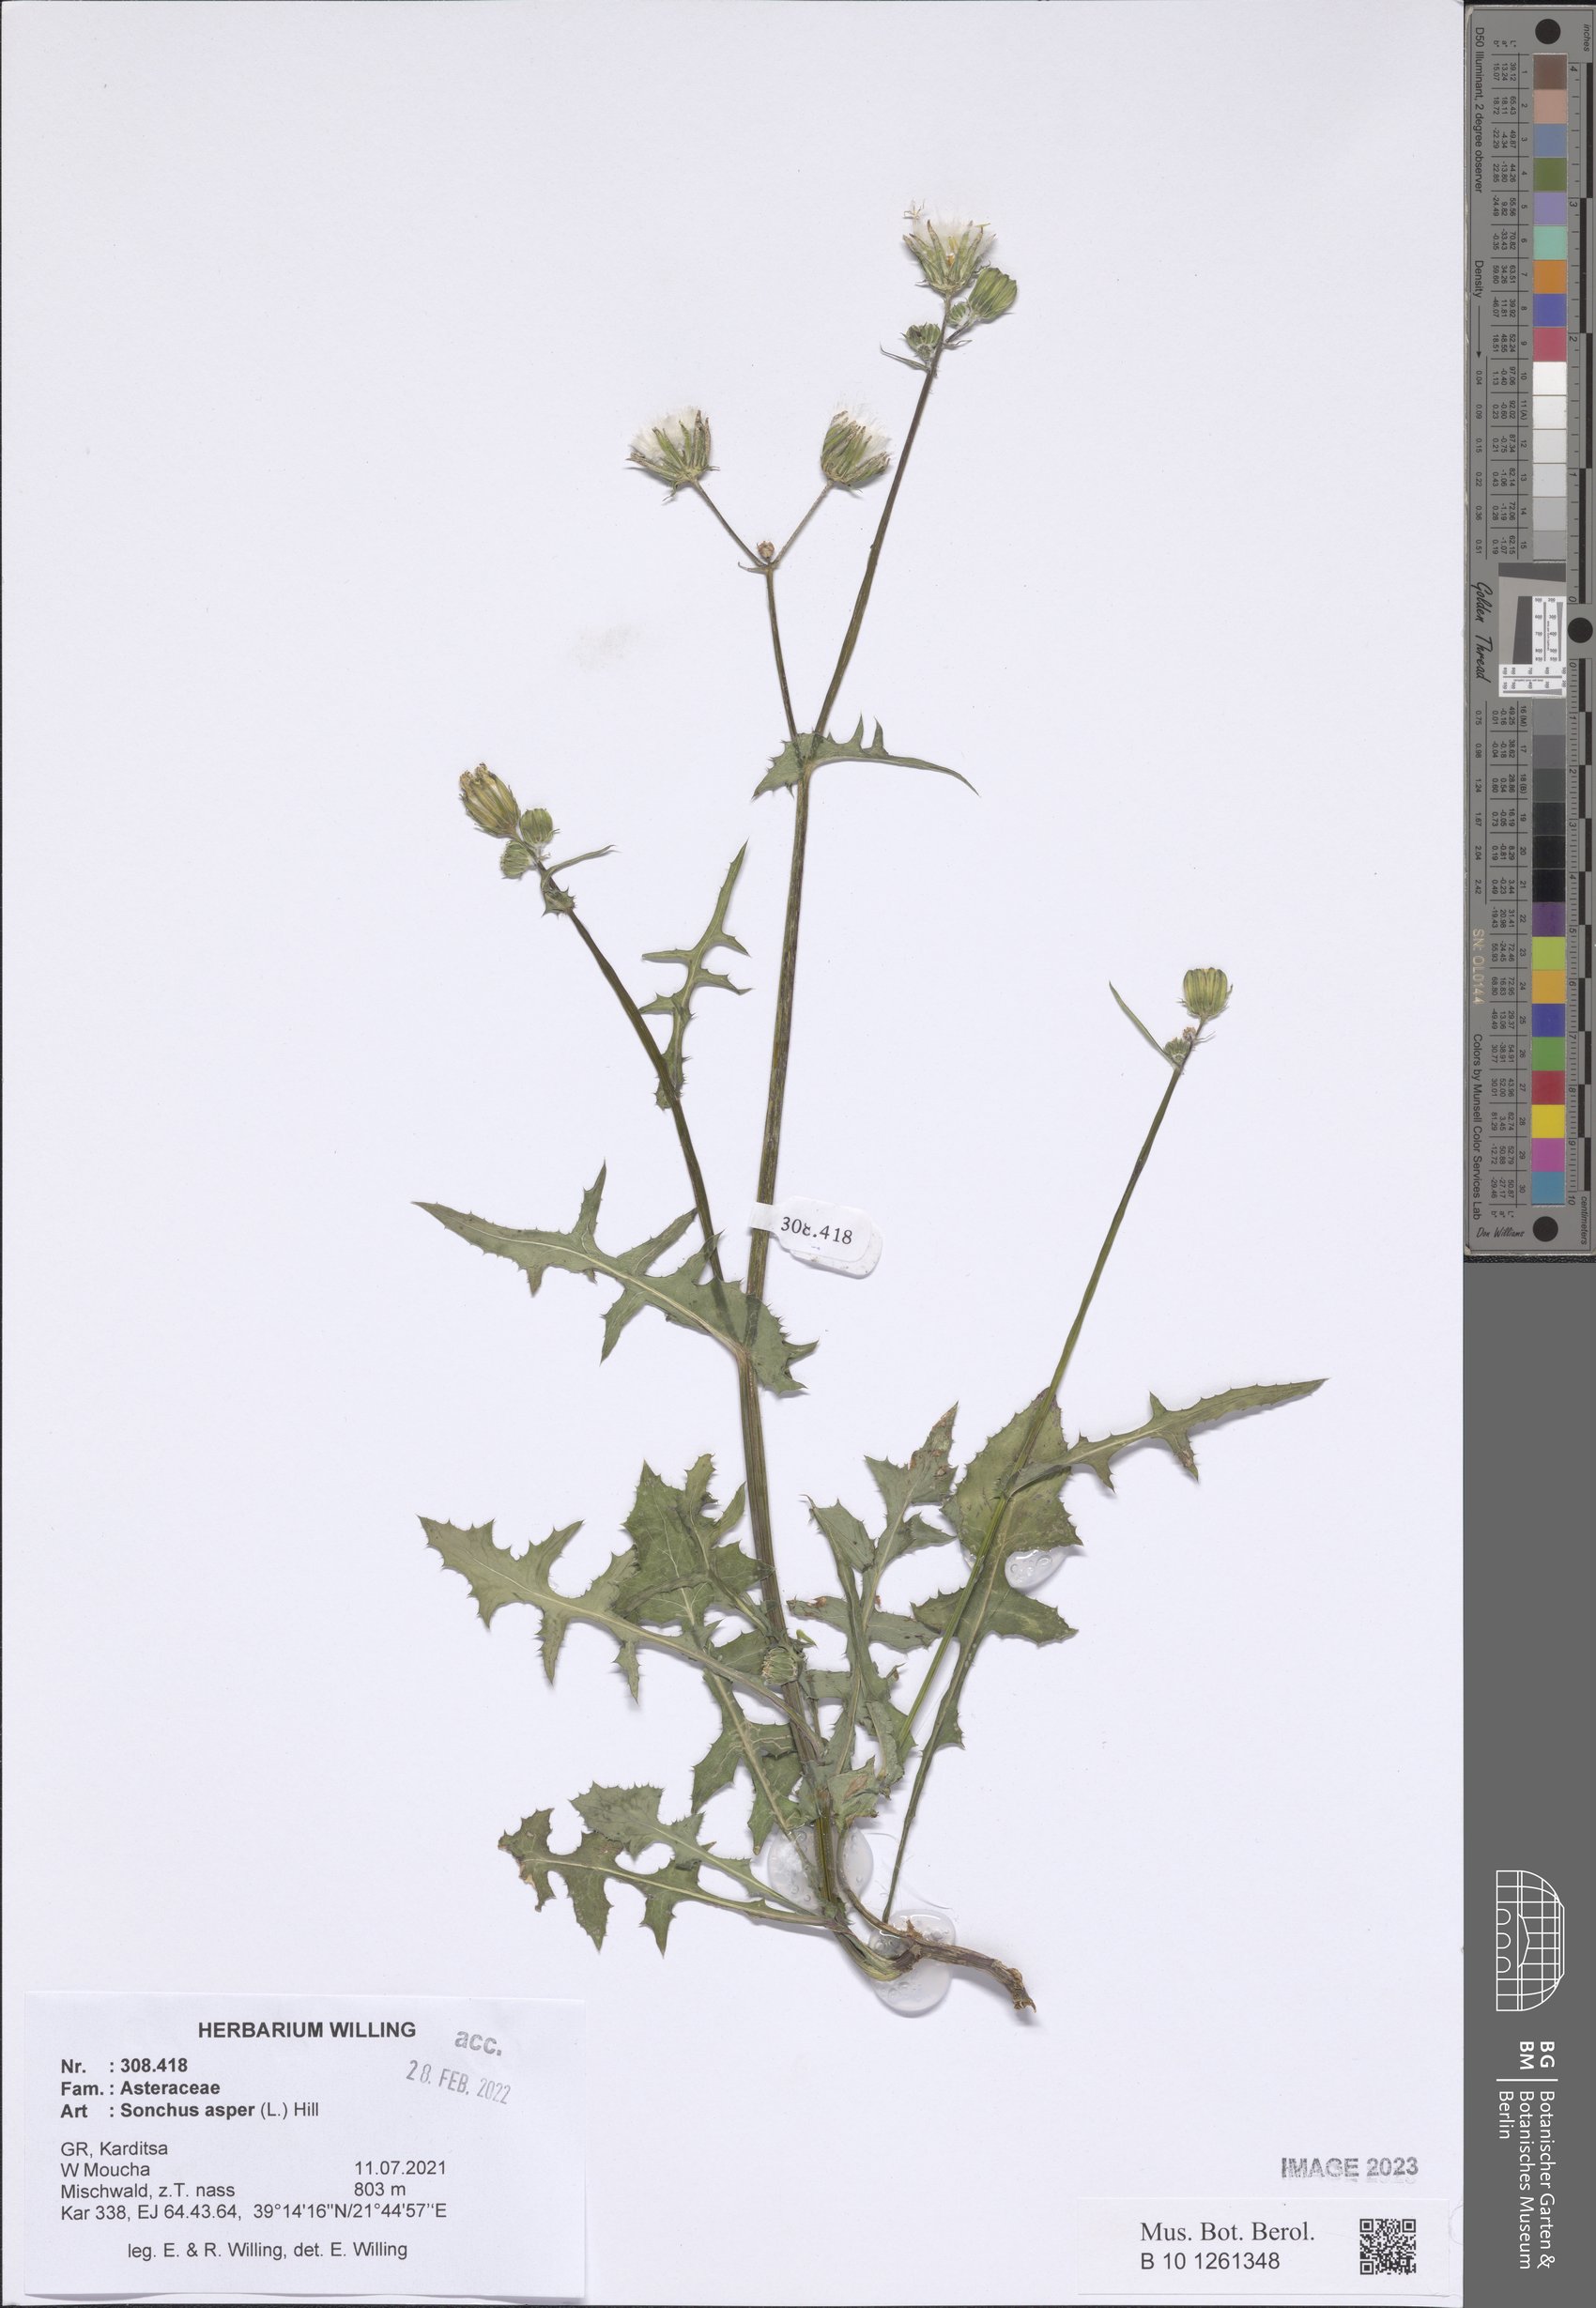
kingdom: Plantae
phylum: Tracheophyta
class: Magnoliopsida
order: Asterales
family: Asteraceae
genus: Sonchus
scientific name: Sonchus asper
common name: Prickly sow-thistle
